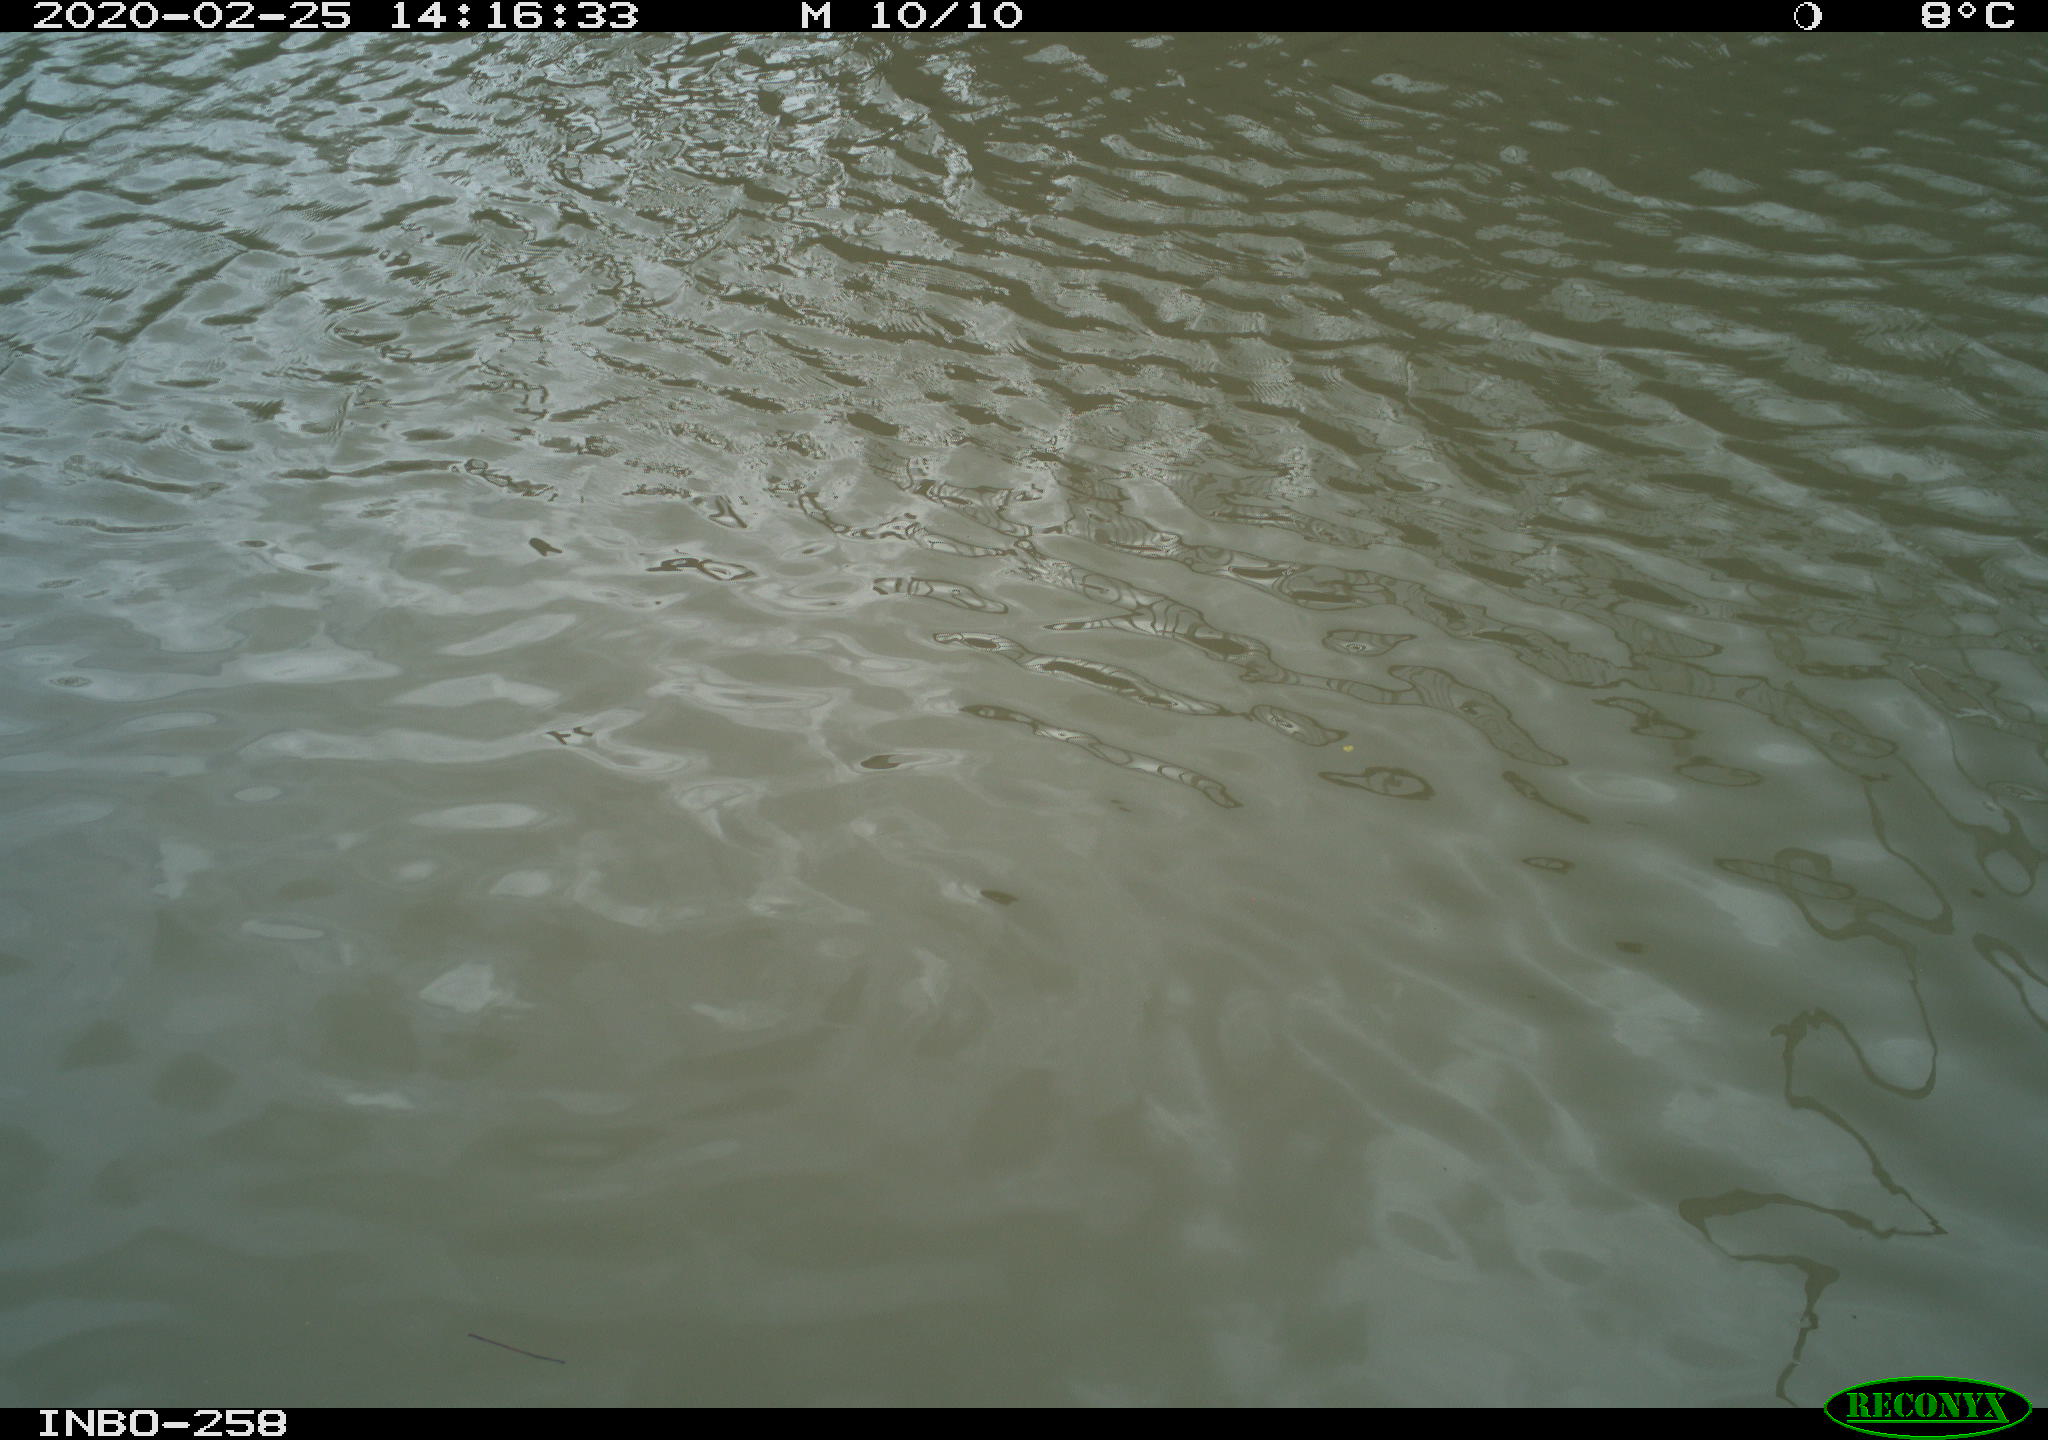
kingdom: Animalia
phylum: Chordata
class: Aves
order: Gruiformes
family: Rallidae
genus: Gallinula
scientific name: Gallinula chloropus
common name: Common moorhen
